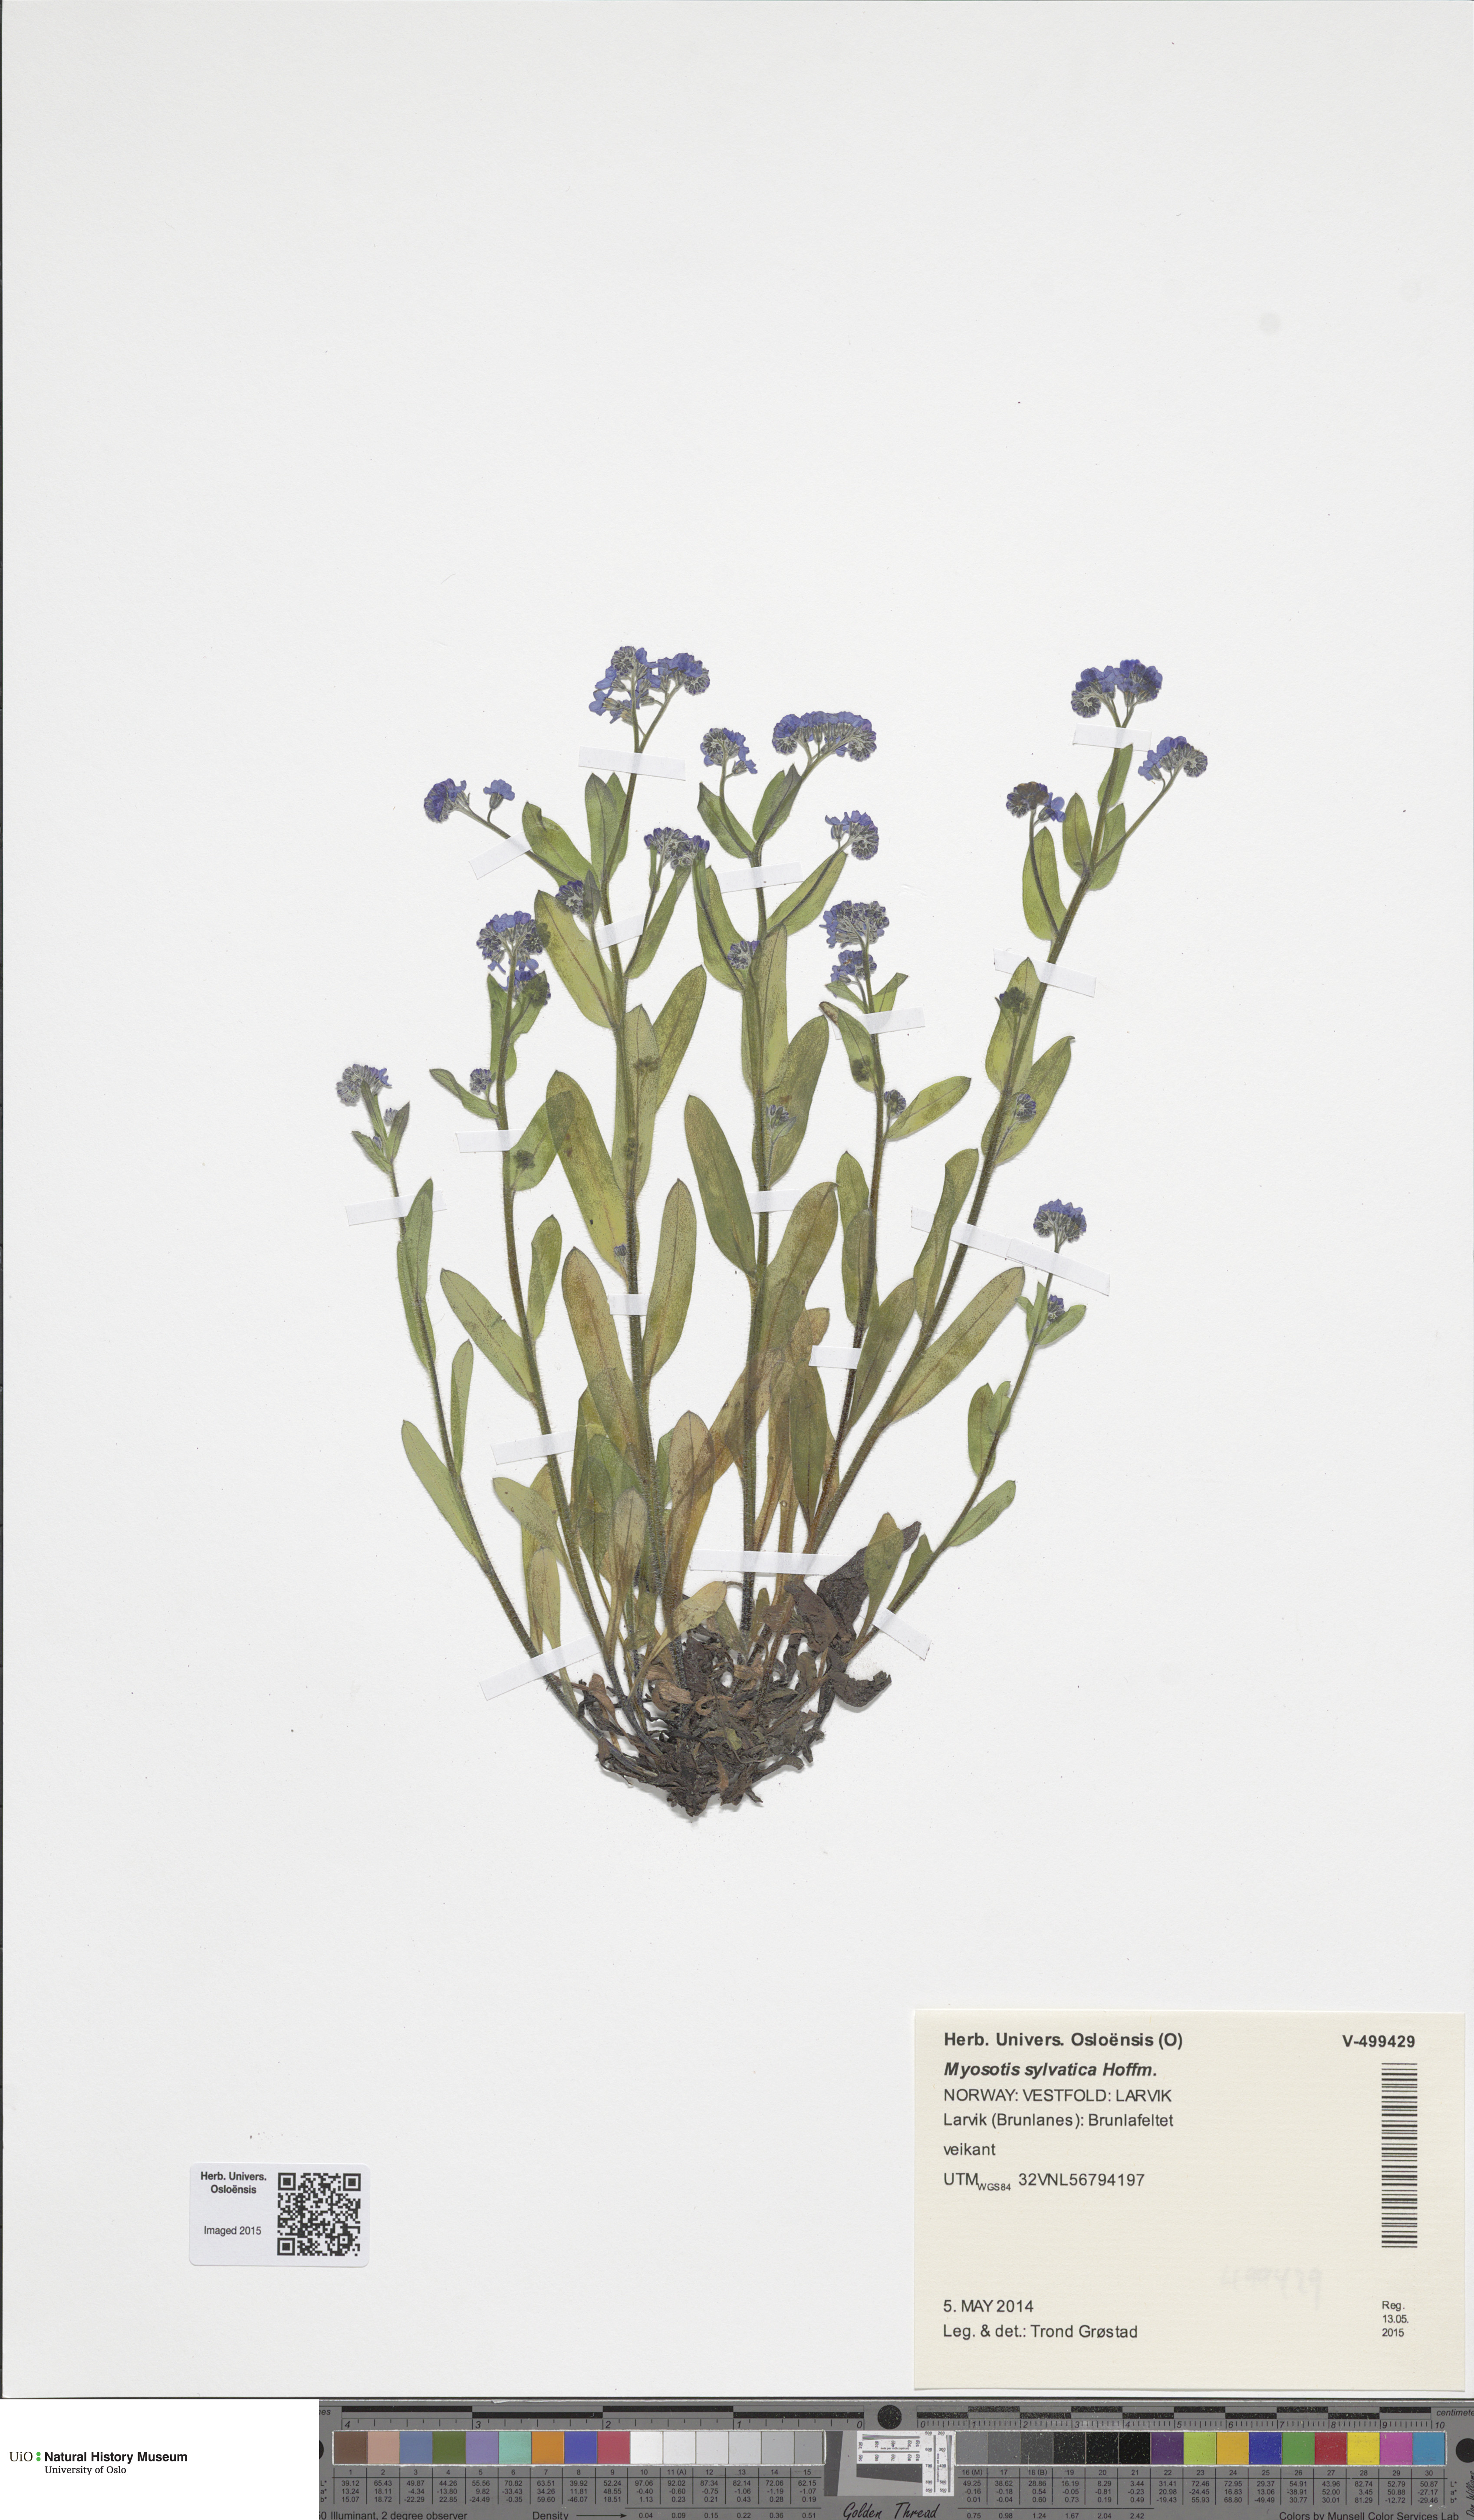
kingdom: Plantae
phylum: Tracheophyta
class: Magnoliopsida
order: Boraginales
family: Boraginaceae
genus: Myosotis
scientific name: Myosotis sylvatica
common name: Wood forget-me-not
